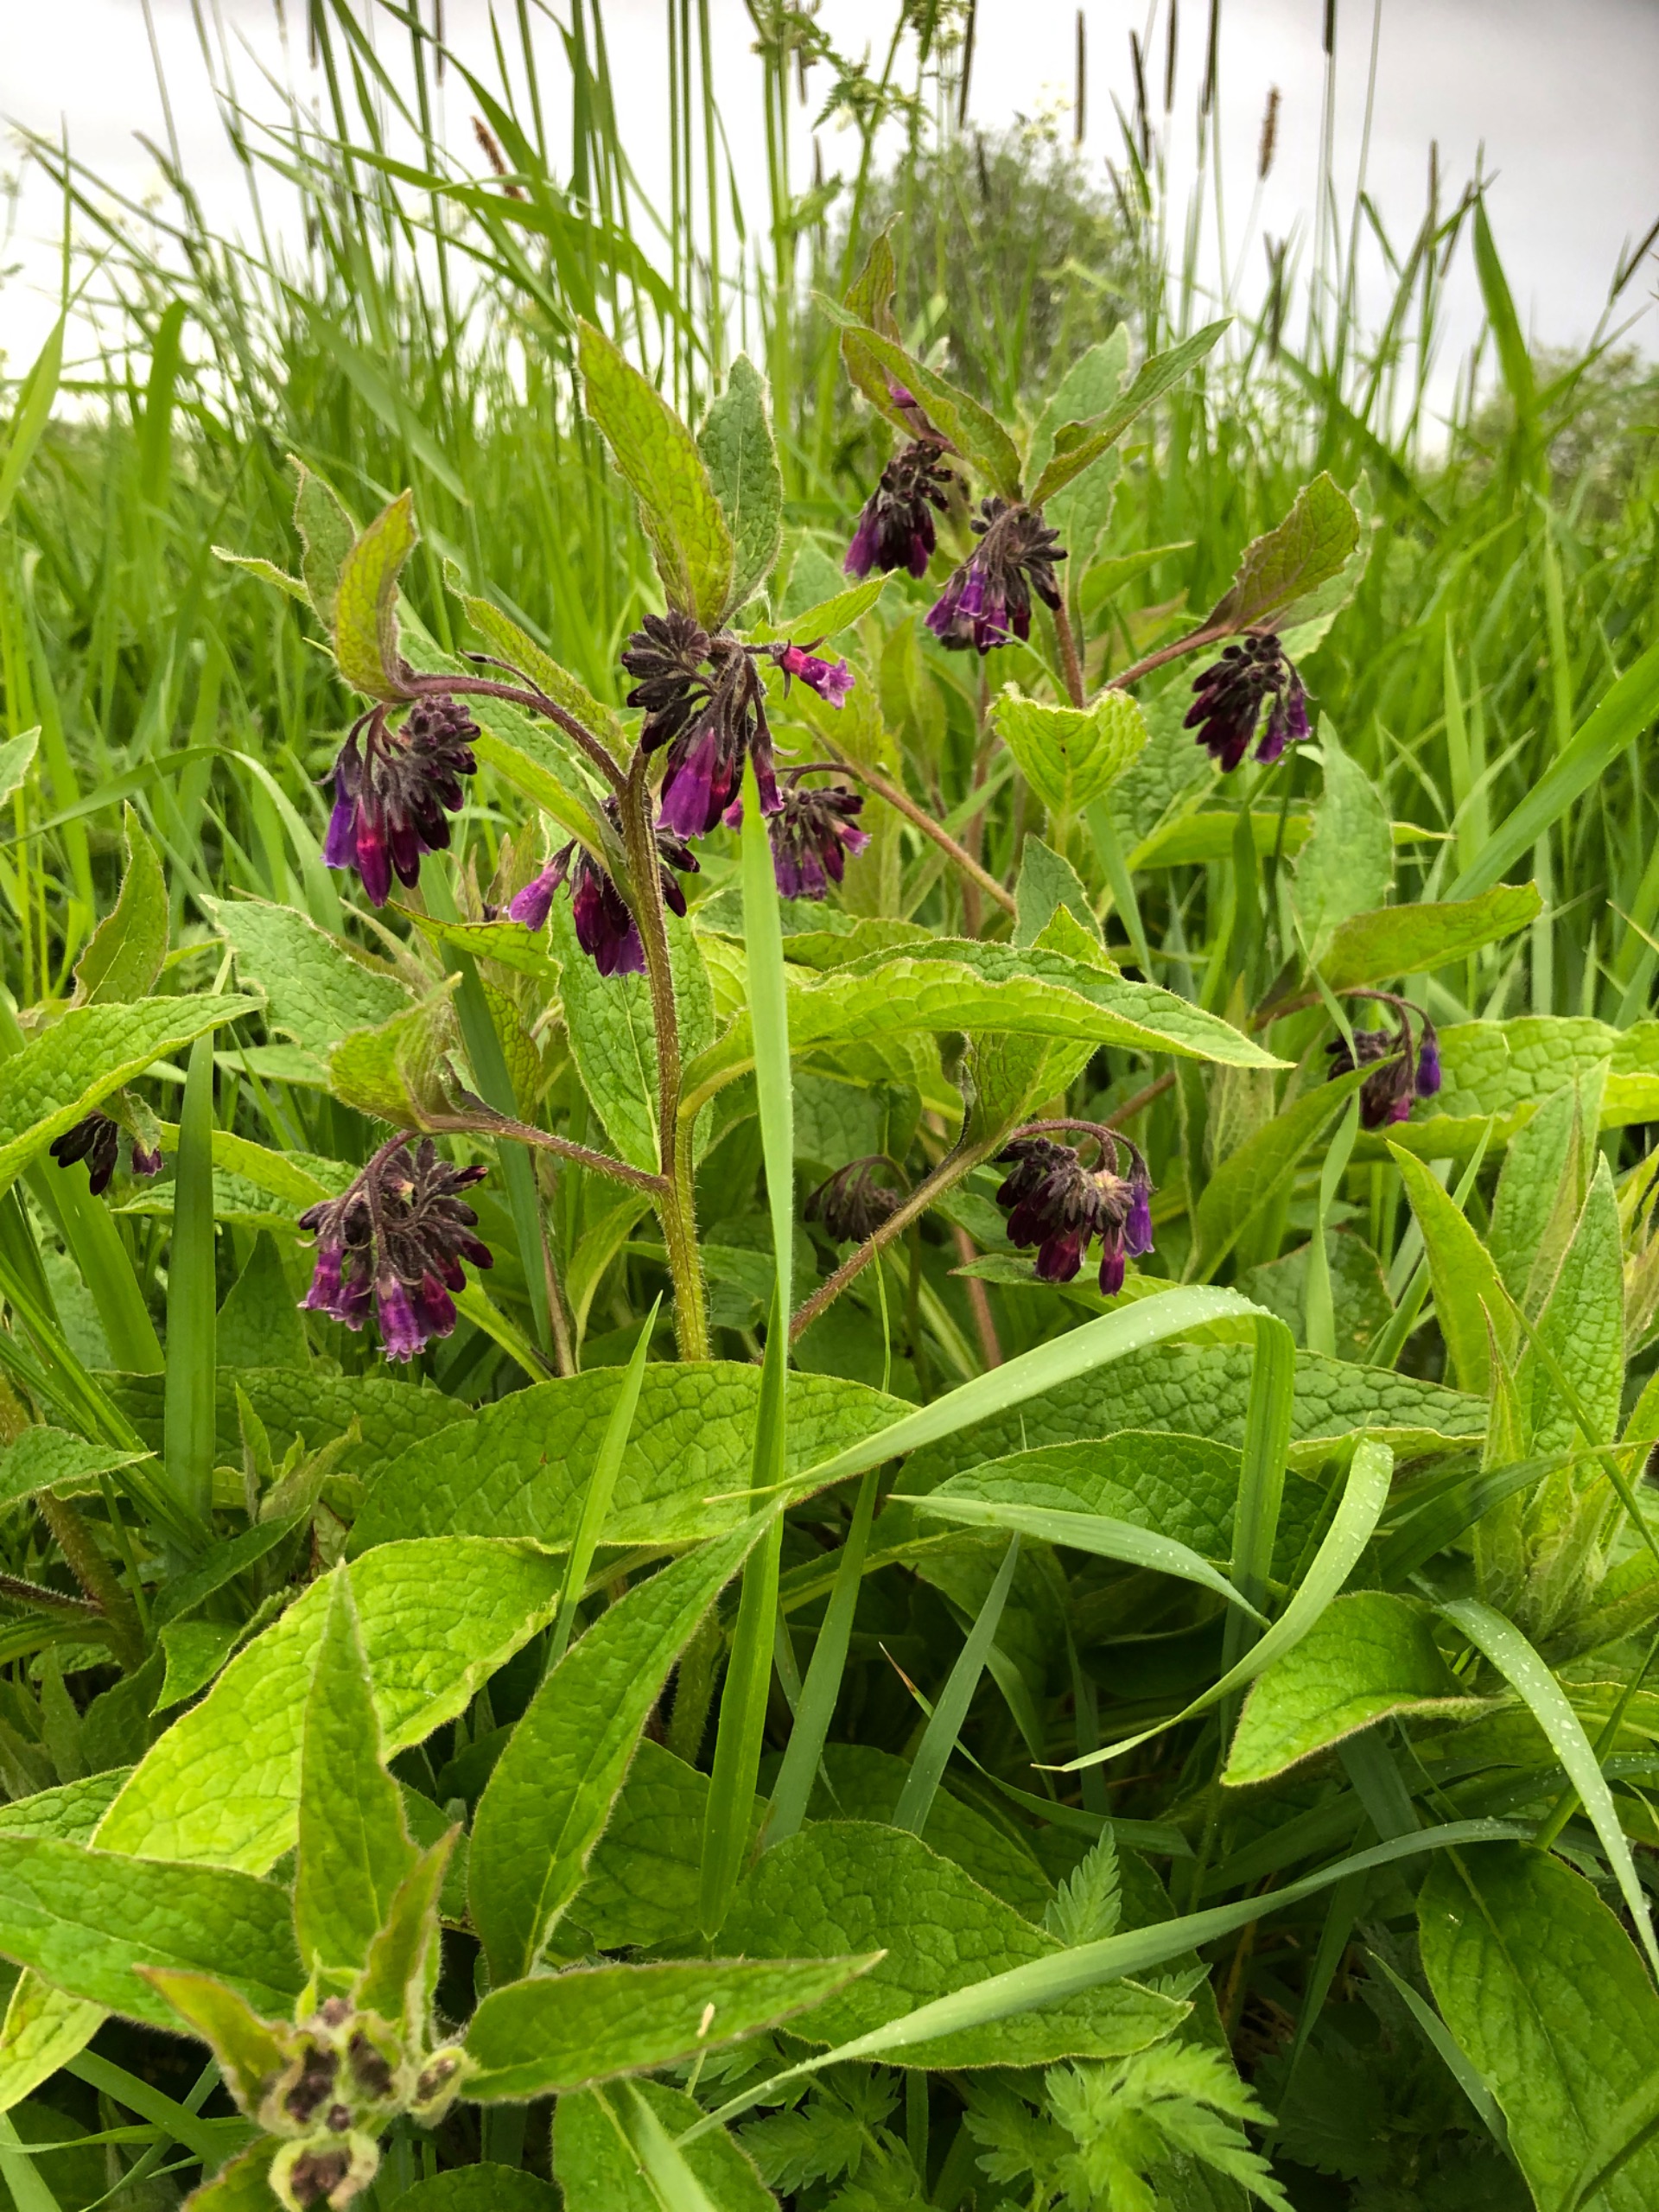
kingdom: Plantae
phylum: Tracheophyta
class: Magnoliopsida
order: Boraginales
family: Boraginaceae
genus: Symphytum
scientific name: Symphytum uplandicum
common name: Foder-kulsukker
